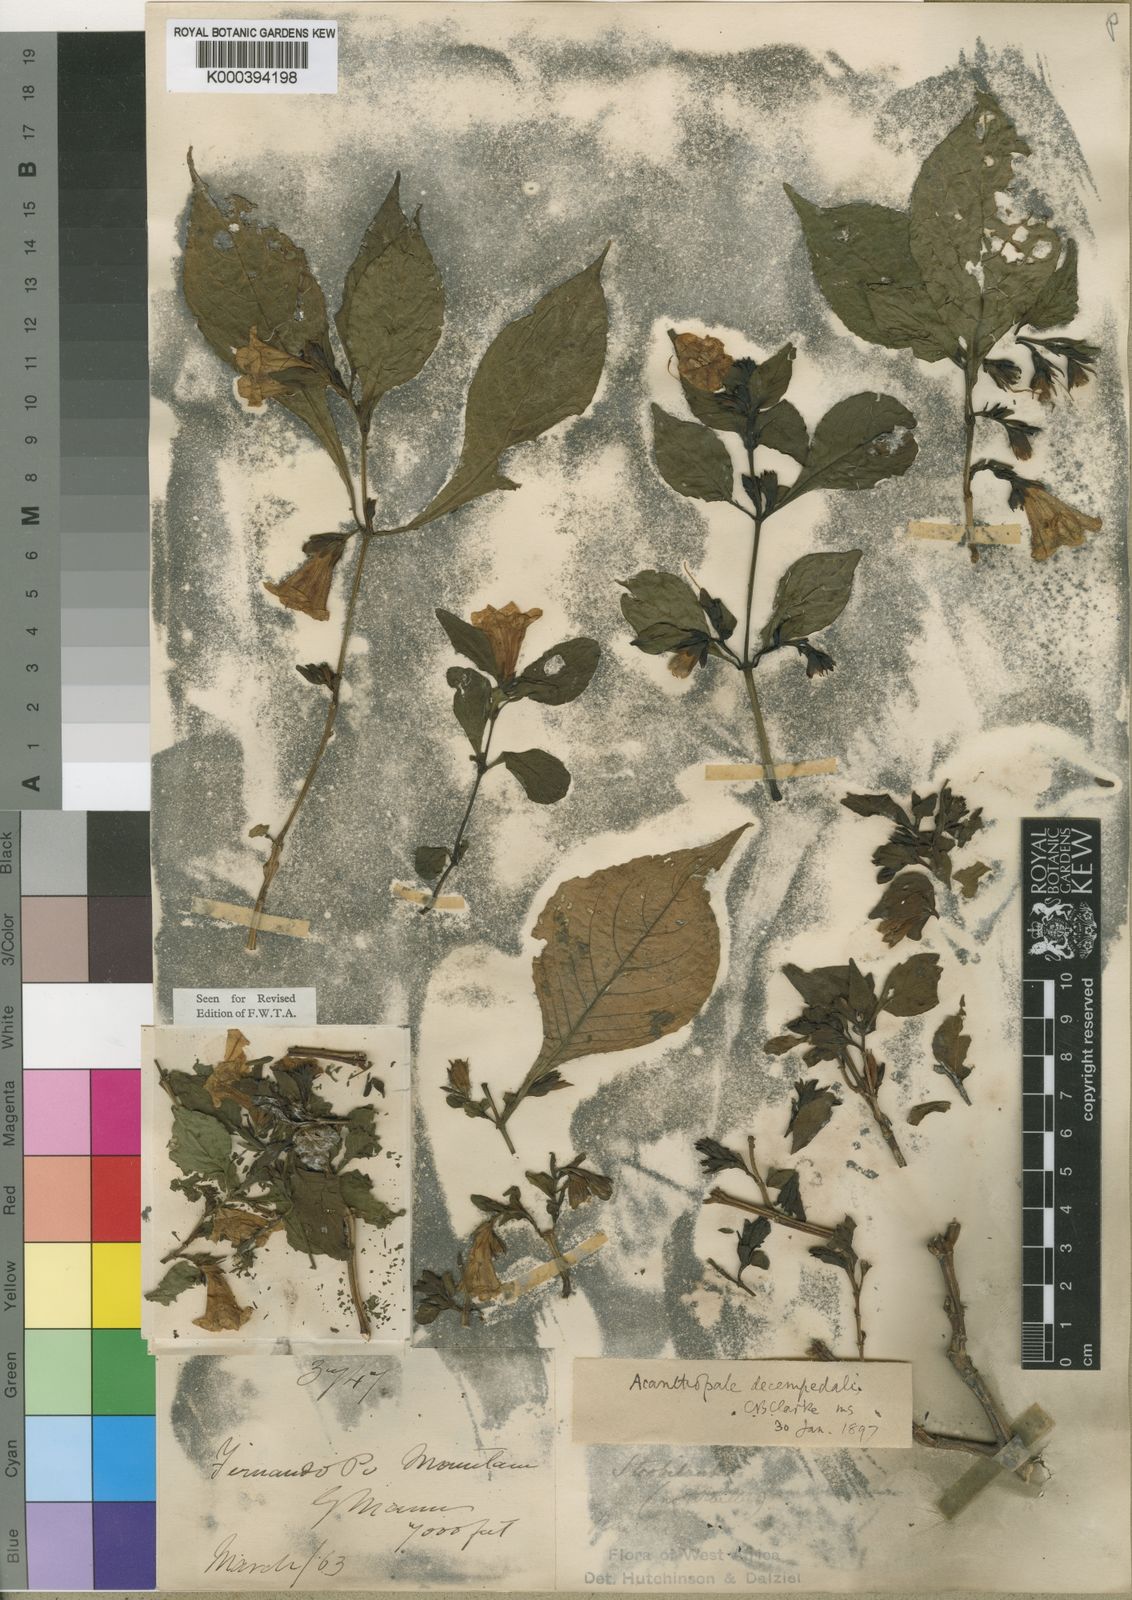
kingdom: Plantae
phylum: Tracheophyta
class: Magnoliopsida
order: Lamiales
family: Acanthaceae
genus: Acanthopale
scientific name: Acanthopale decempedalis
